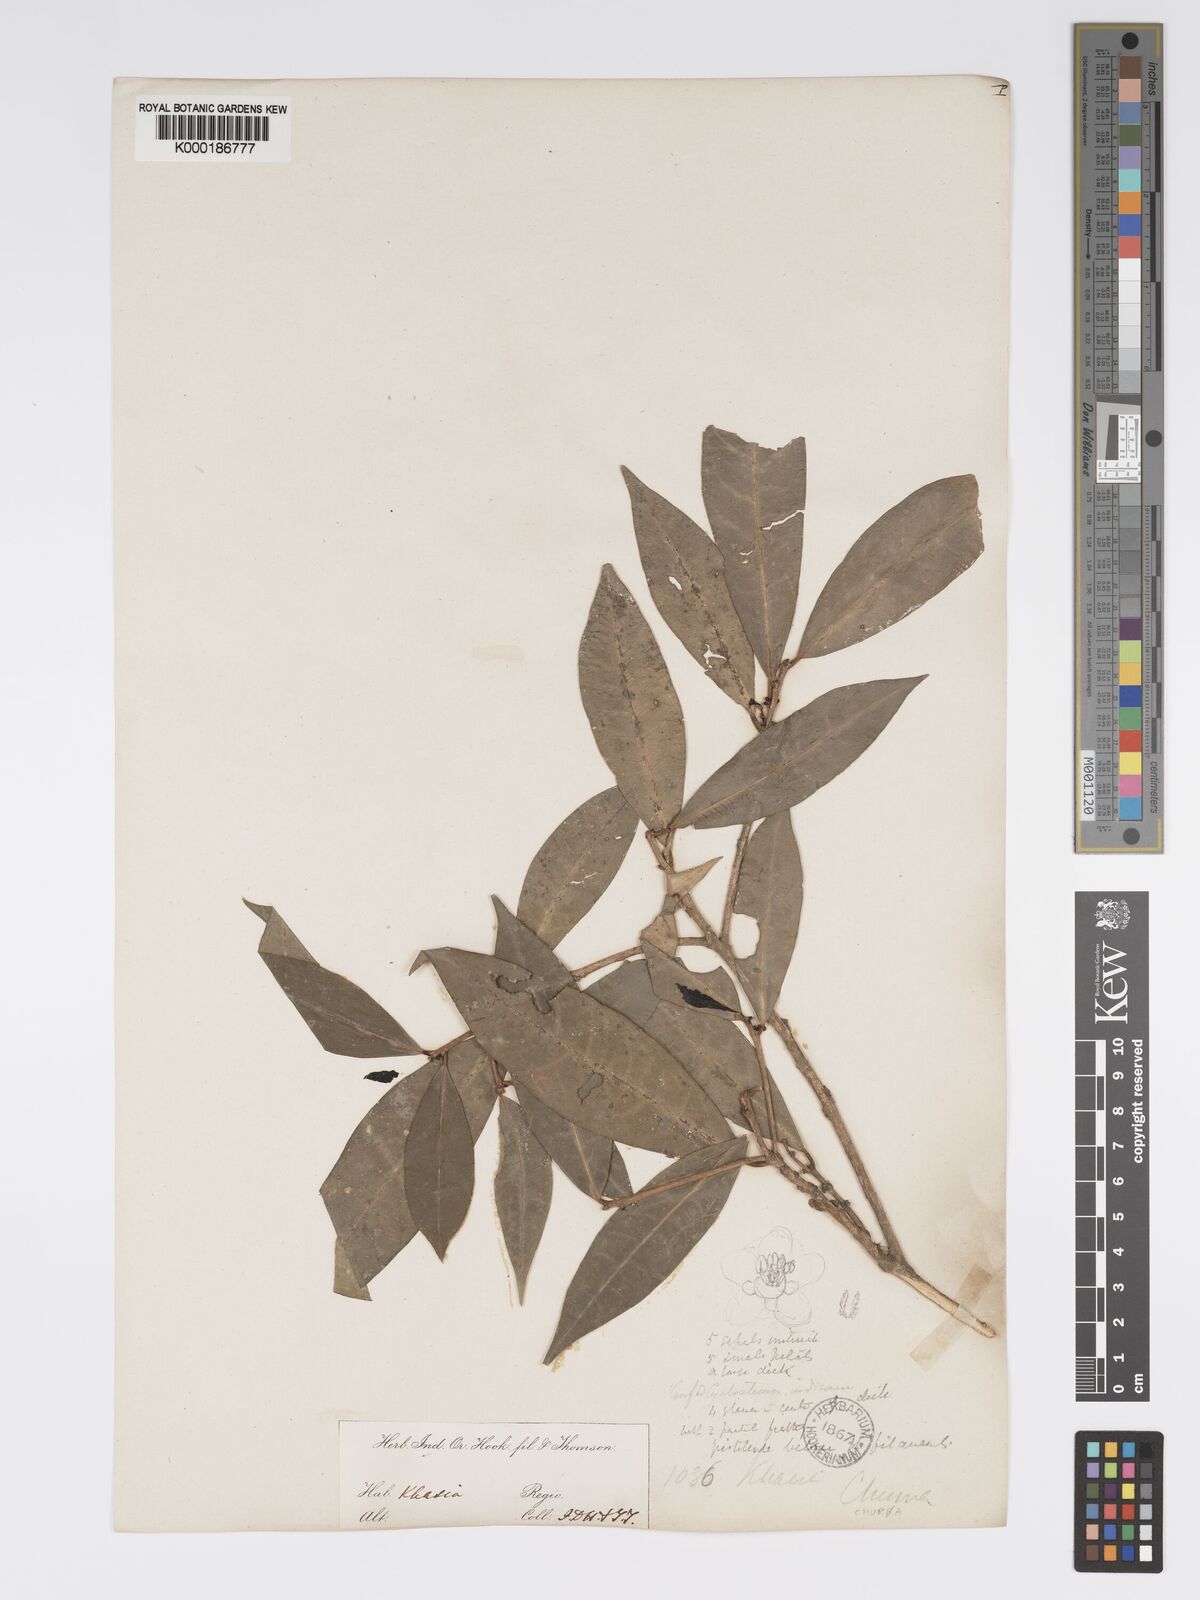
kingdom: Plantae
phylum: Tracheophyta
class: Magnoliopsida
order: Malpighiales
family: Phyllanthaceae
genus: Actephila
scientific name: Actephila excelsa
